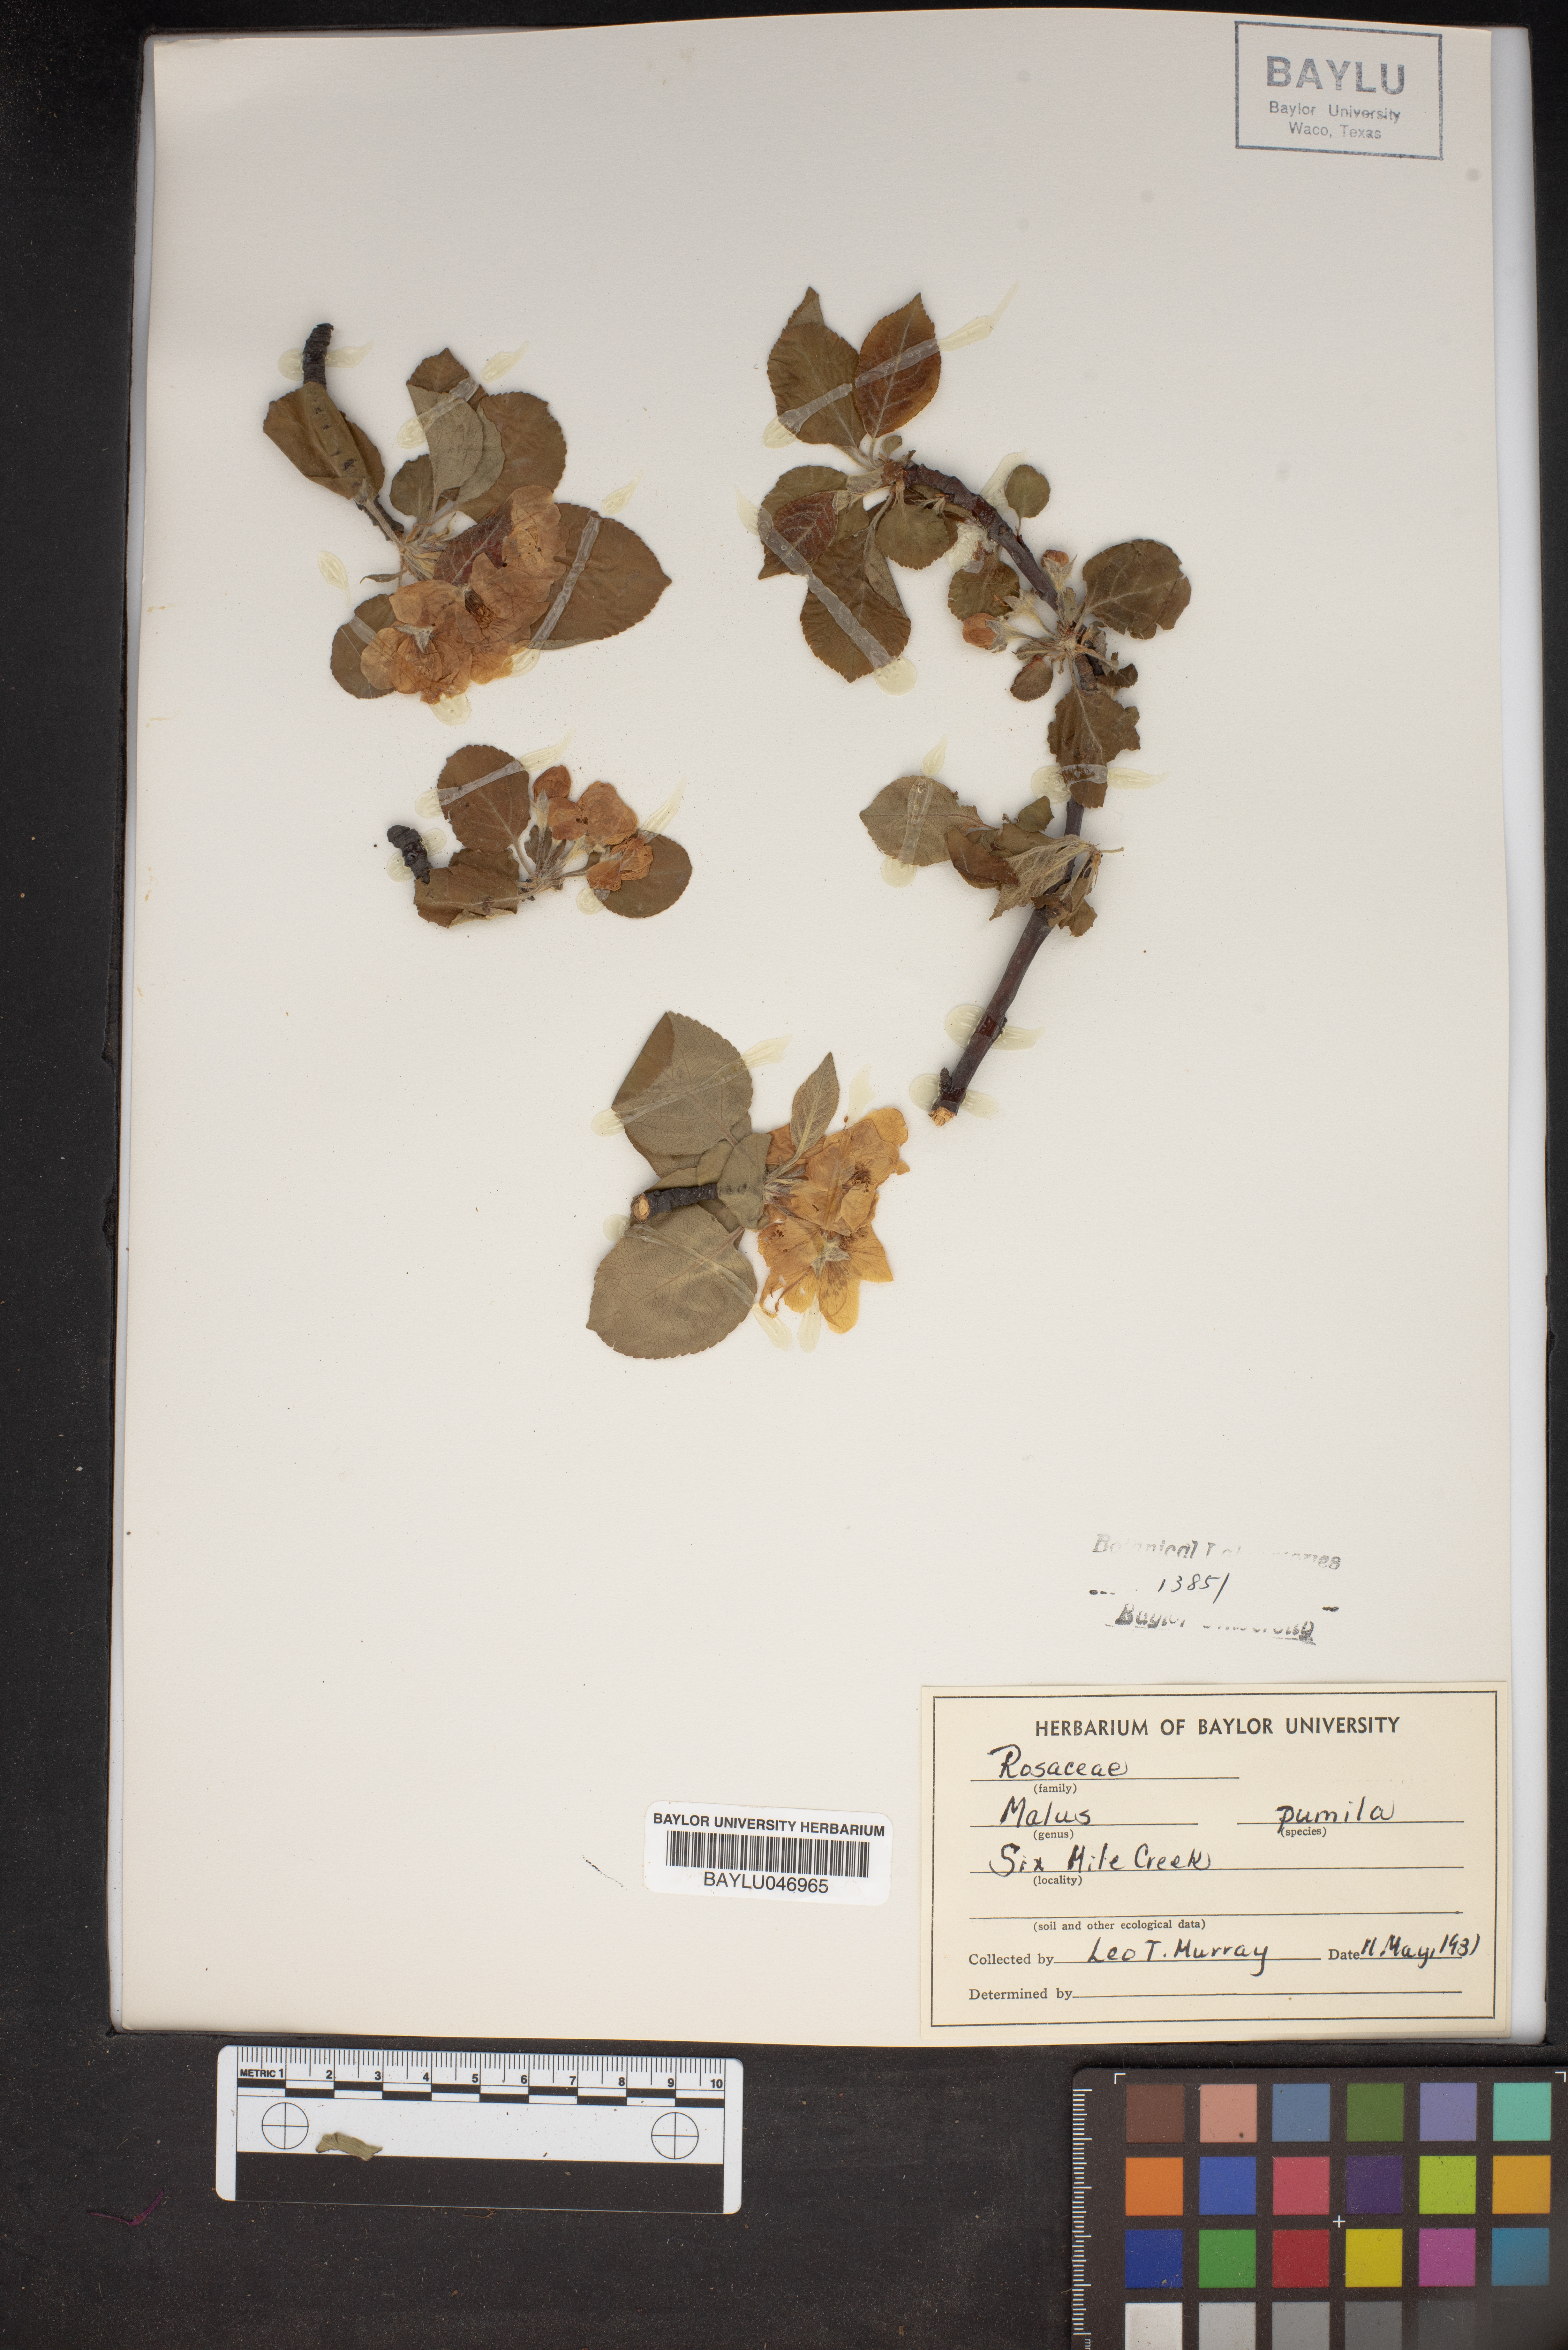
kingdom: Plantae
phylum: Tracheophyta
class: Magnoliopsida
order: Rosales
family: Rosaceae
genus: Malus
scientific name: Malus domestica
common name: Apple
